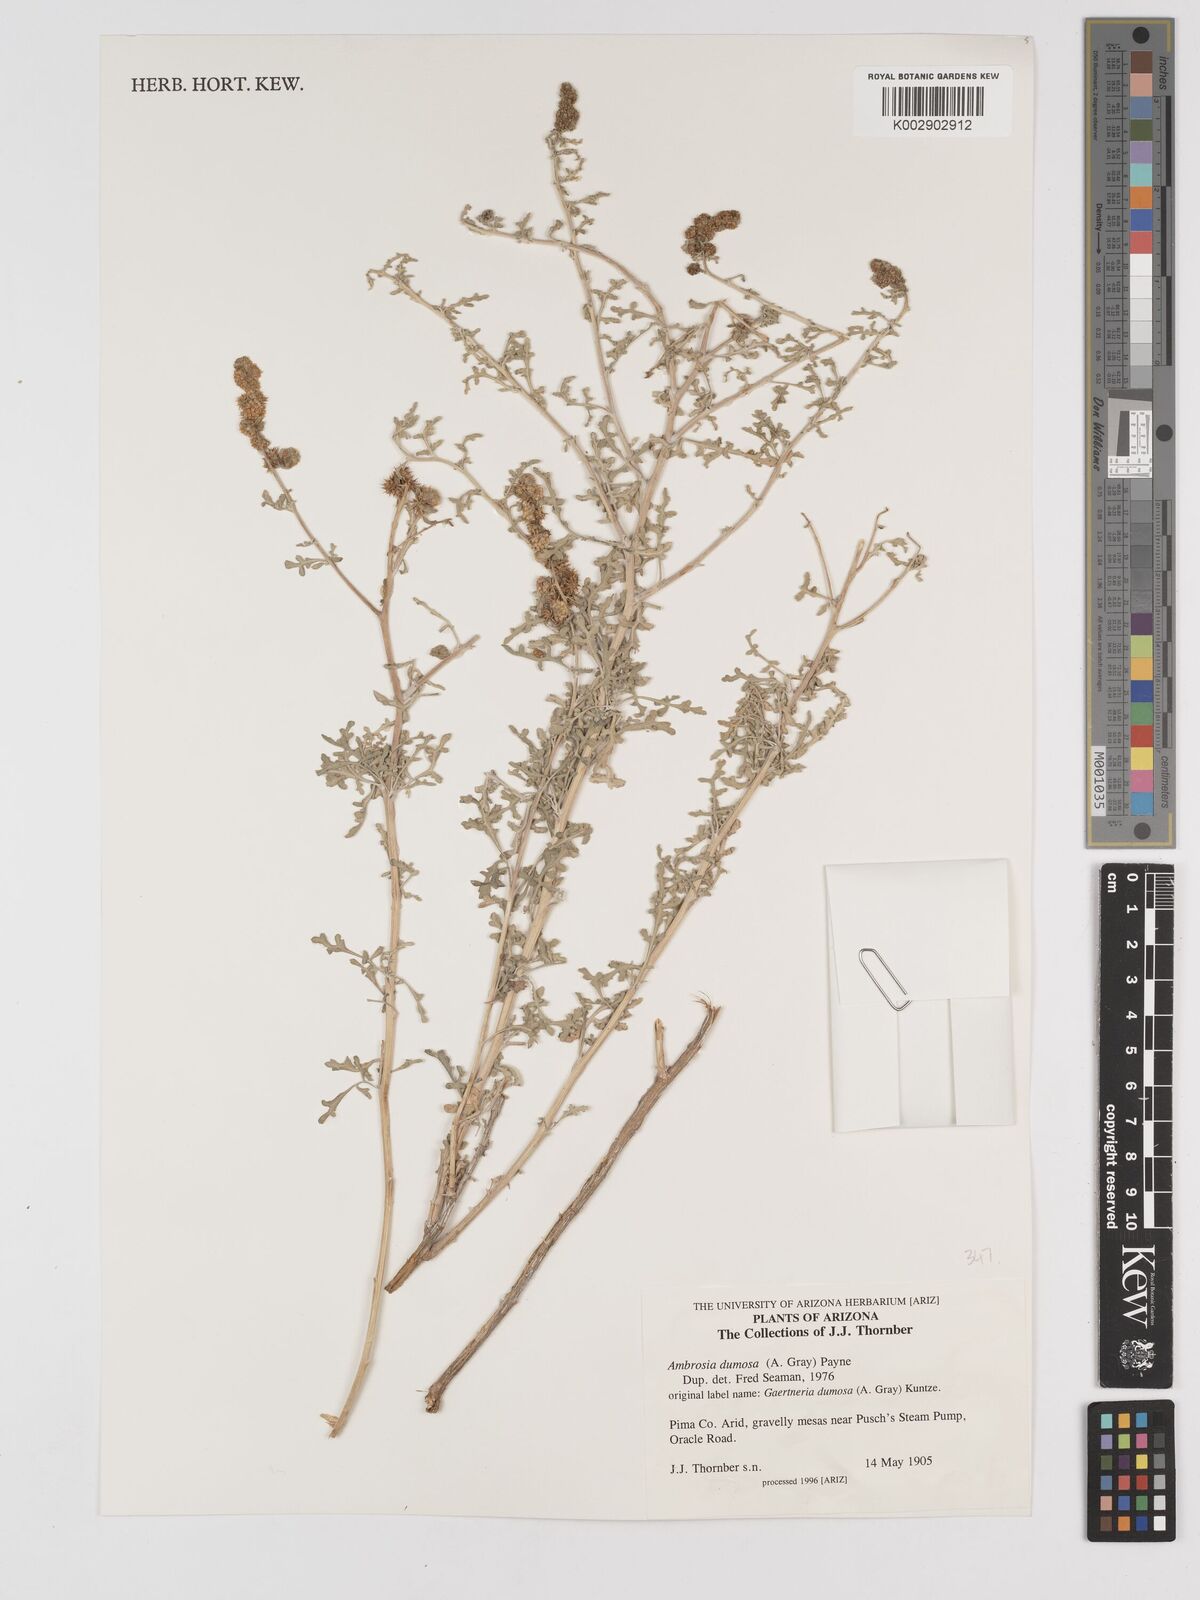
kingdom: Plantae
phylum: Tracheophyta
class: Magnoliopsida
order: Asterales
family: Asteraceae
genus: Ambrosia
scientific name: Ambrosia dumosa
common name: Bur-sage
